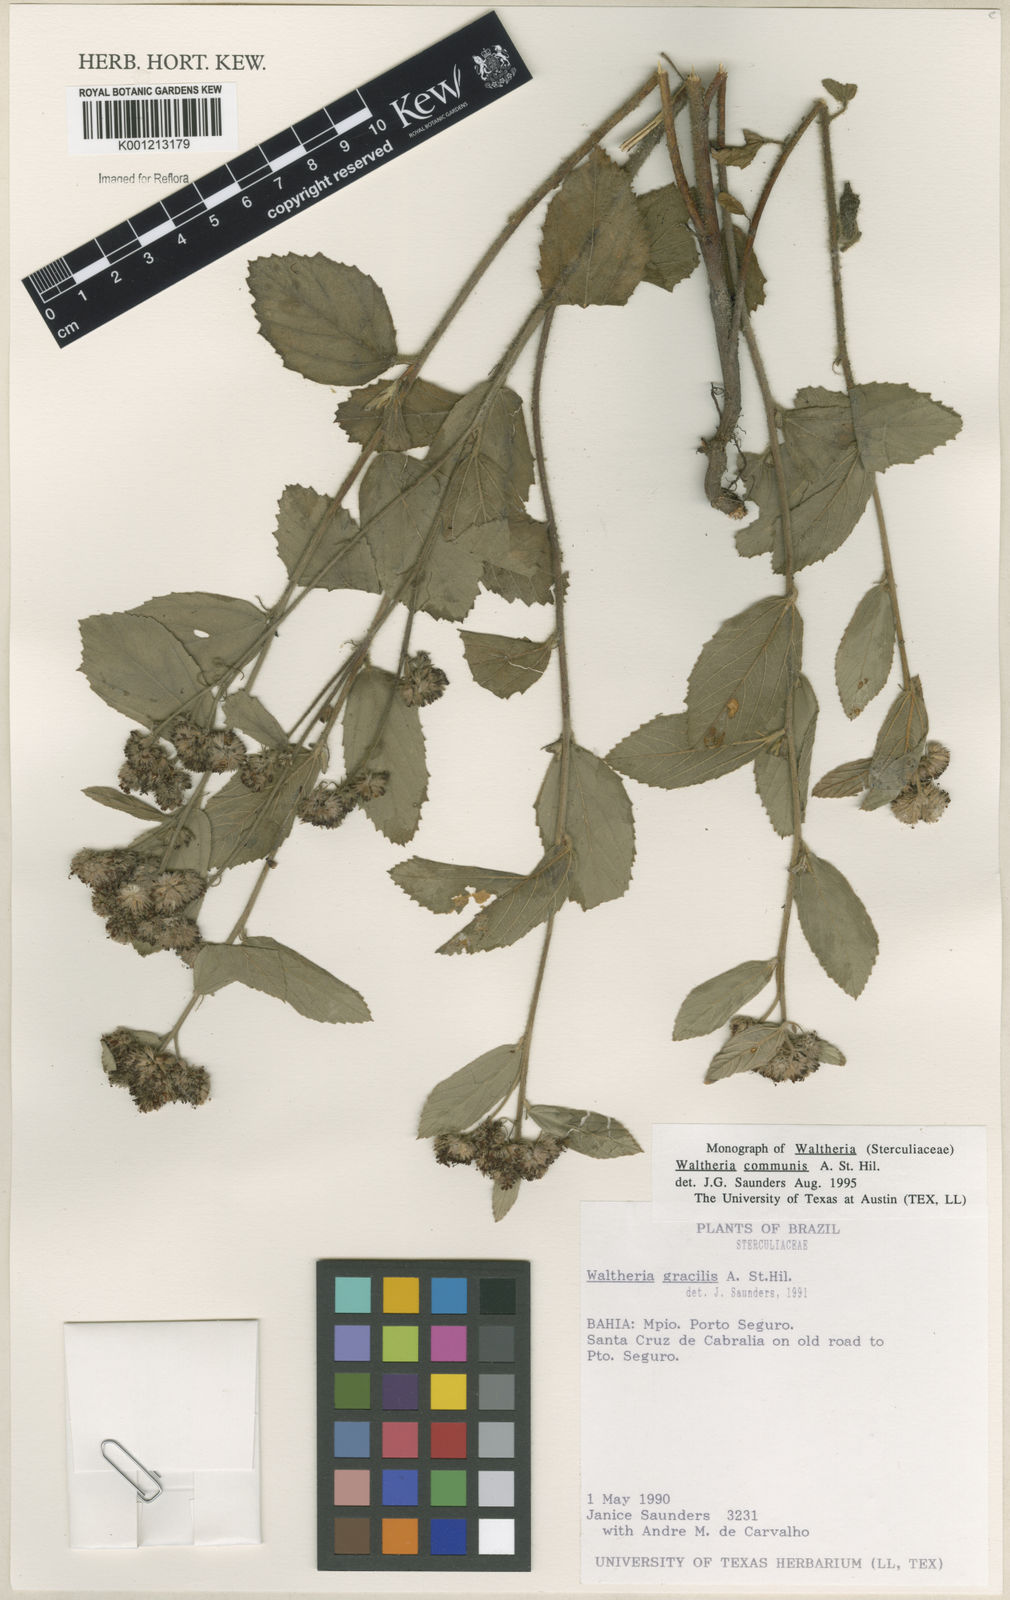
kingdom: Plantae
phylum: Tracheophyta
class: Magnoliopsida
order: Malvales
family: Malvaceae
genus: Waltheria
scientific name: Waltheria communis
